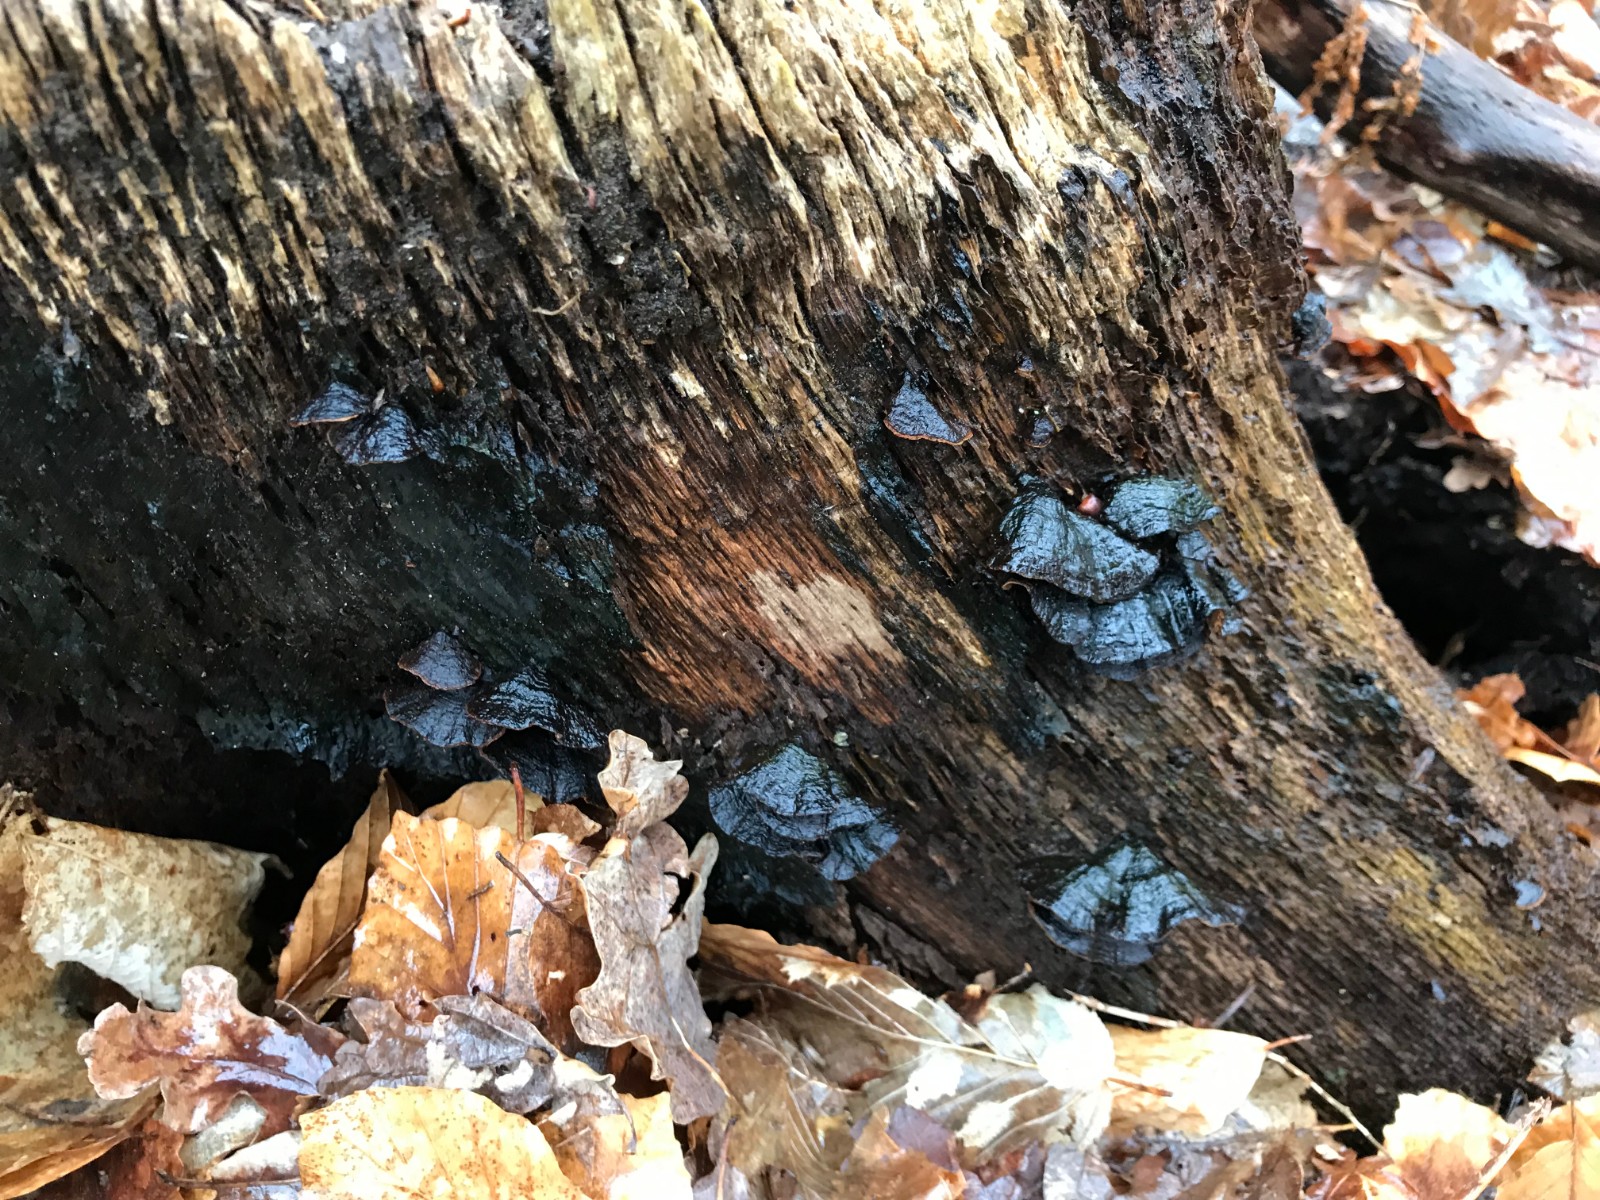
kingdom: Fungi
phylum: Basidiomycota
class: Agaricomycetes
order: Hymenochaetales
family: Hymenochaetaceae
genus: Hymenochaete
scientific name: Hymenochaete rubiginosa
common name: stiv ruslædersvamp
